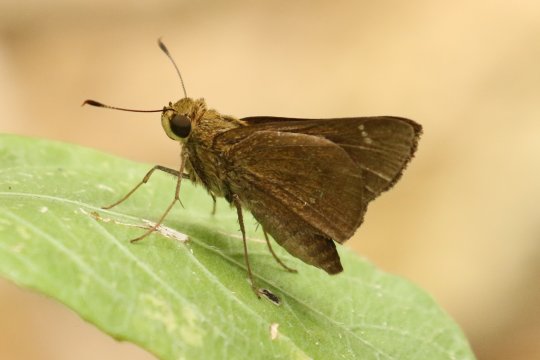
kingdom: Animalia
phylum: Arthropoda
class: Insecta
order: Lepidoptera
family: Hesperiidae
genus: Decinea
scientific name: Decinea percosius
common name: Double-dotted Skipper
